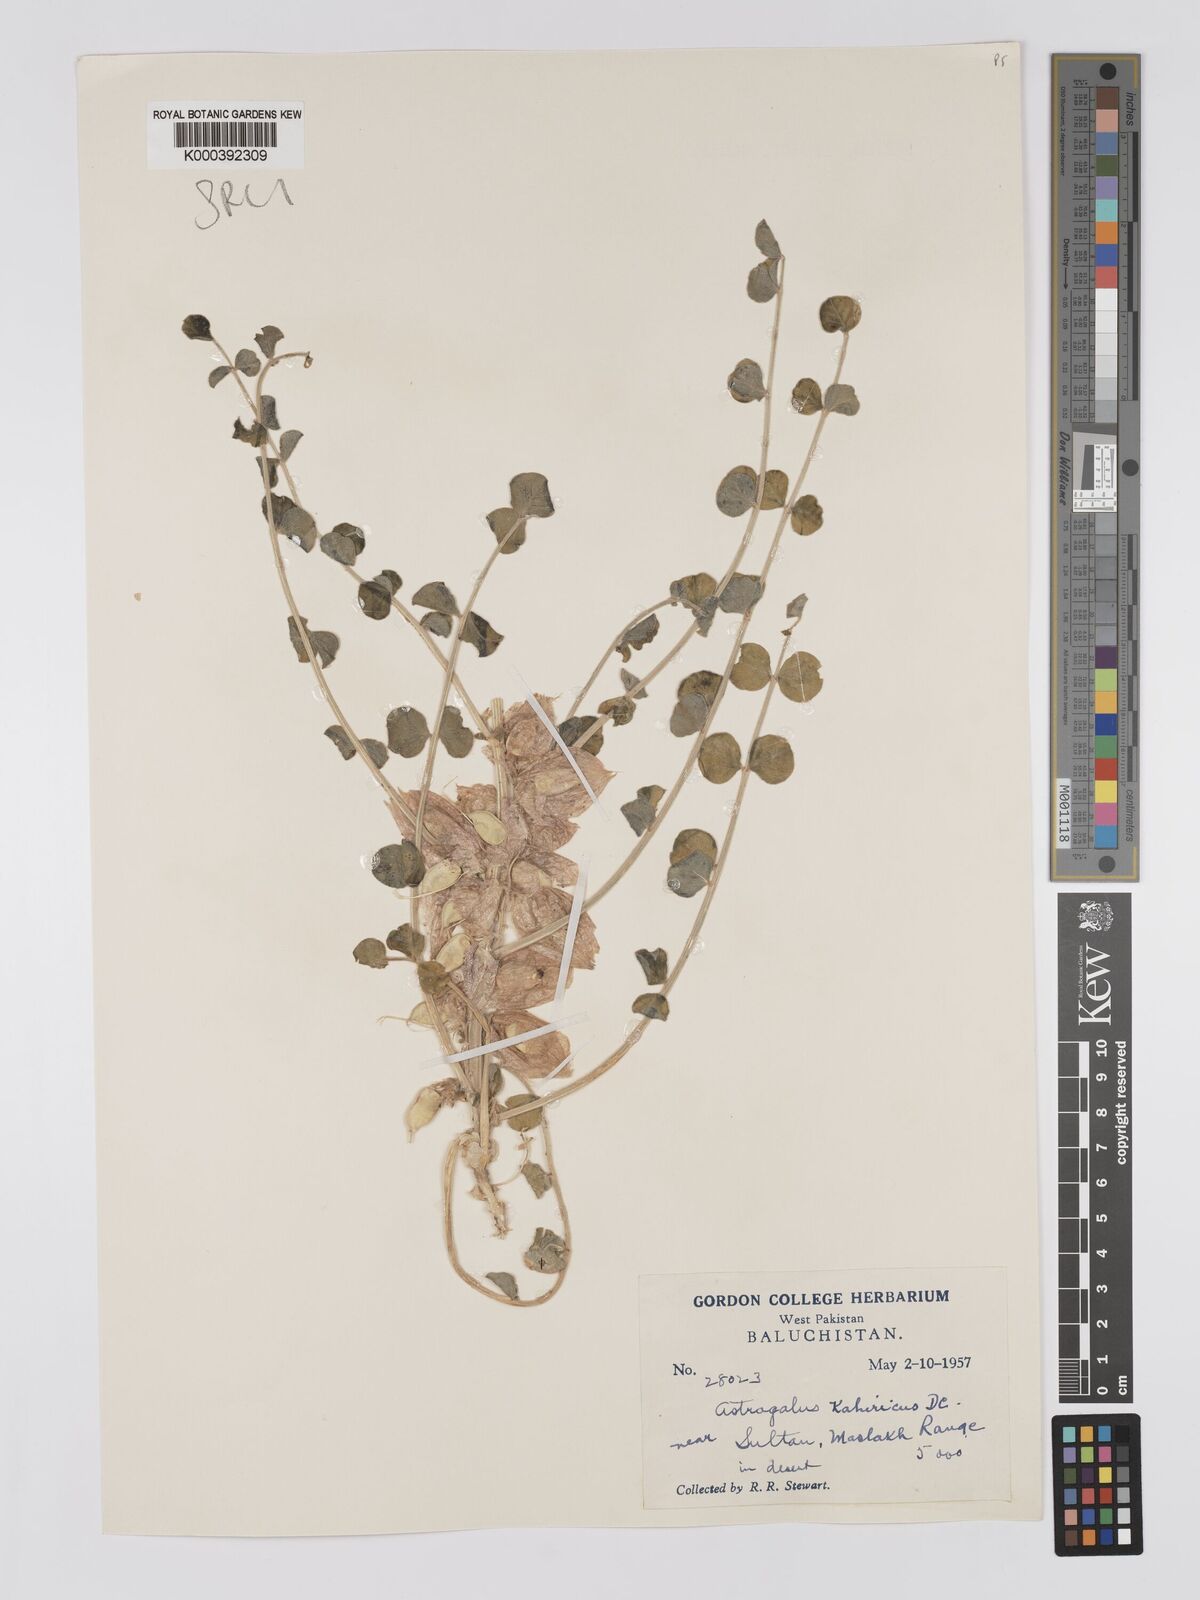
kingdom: Plantae
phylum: Tracheophyta
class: Magnoliopsida
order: Fabales
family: Fabaceae
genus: Astragalus
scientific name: Astragalus kahiricus
